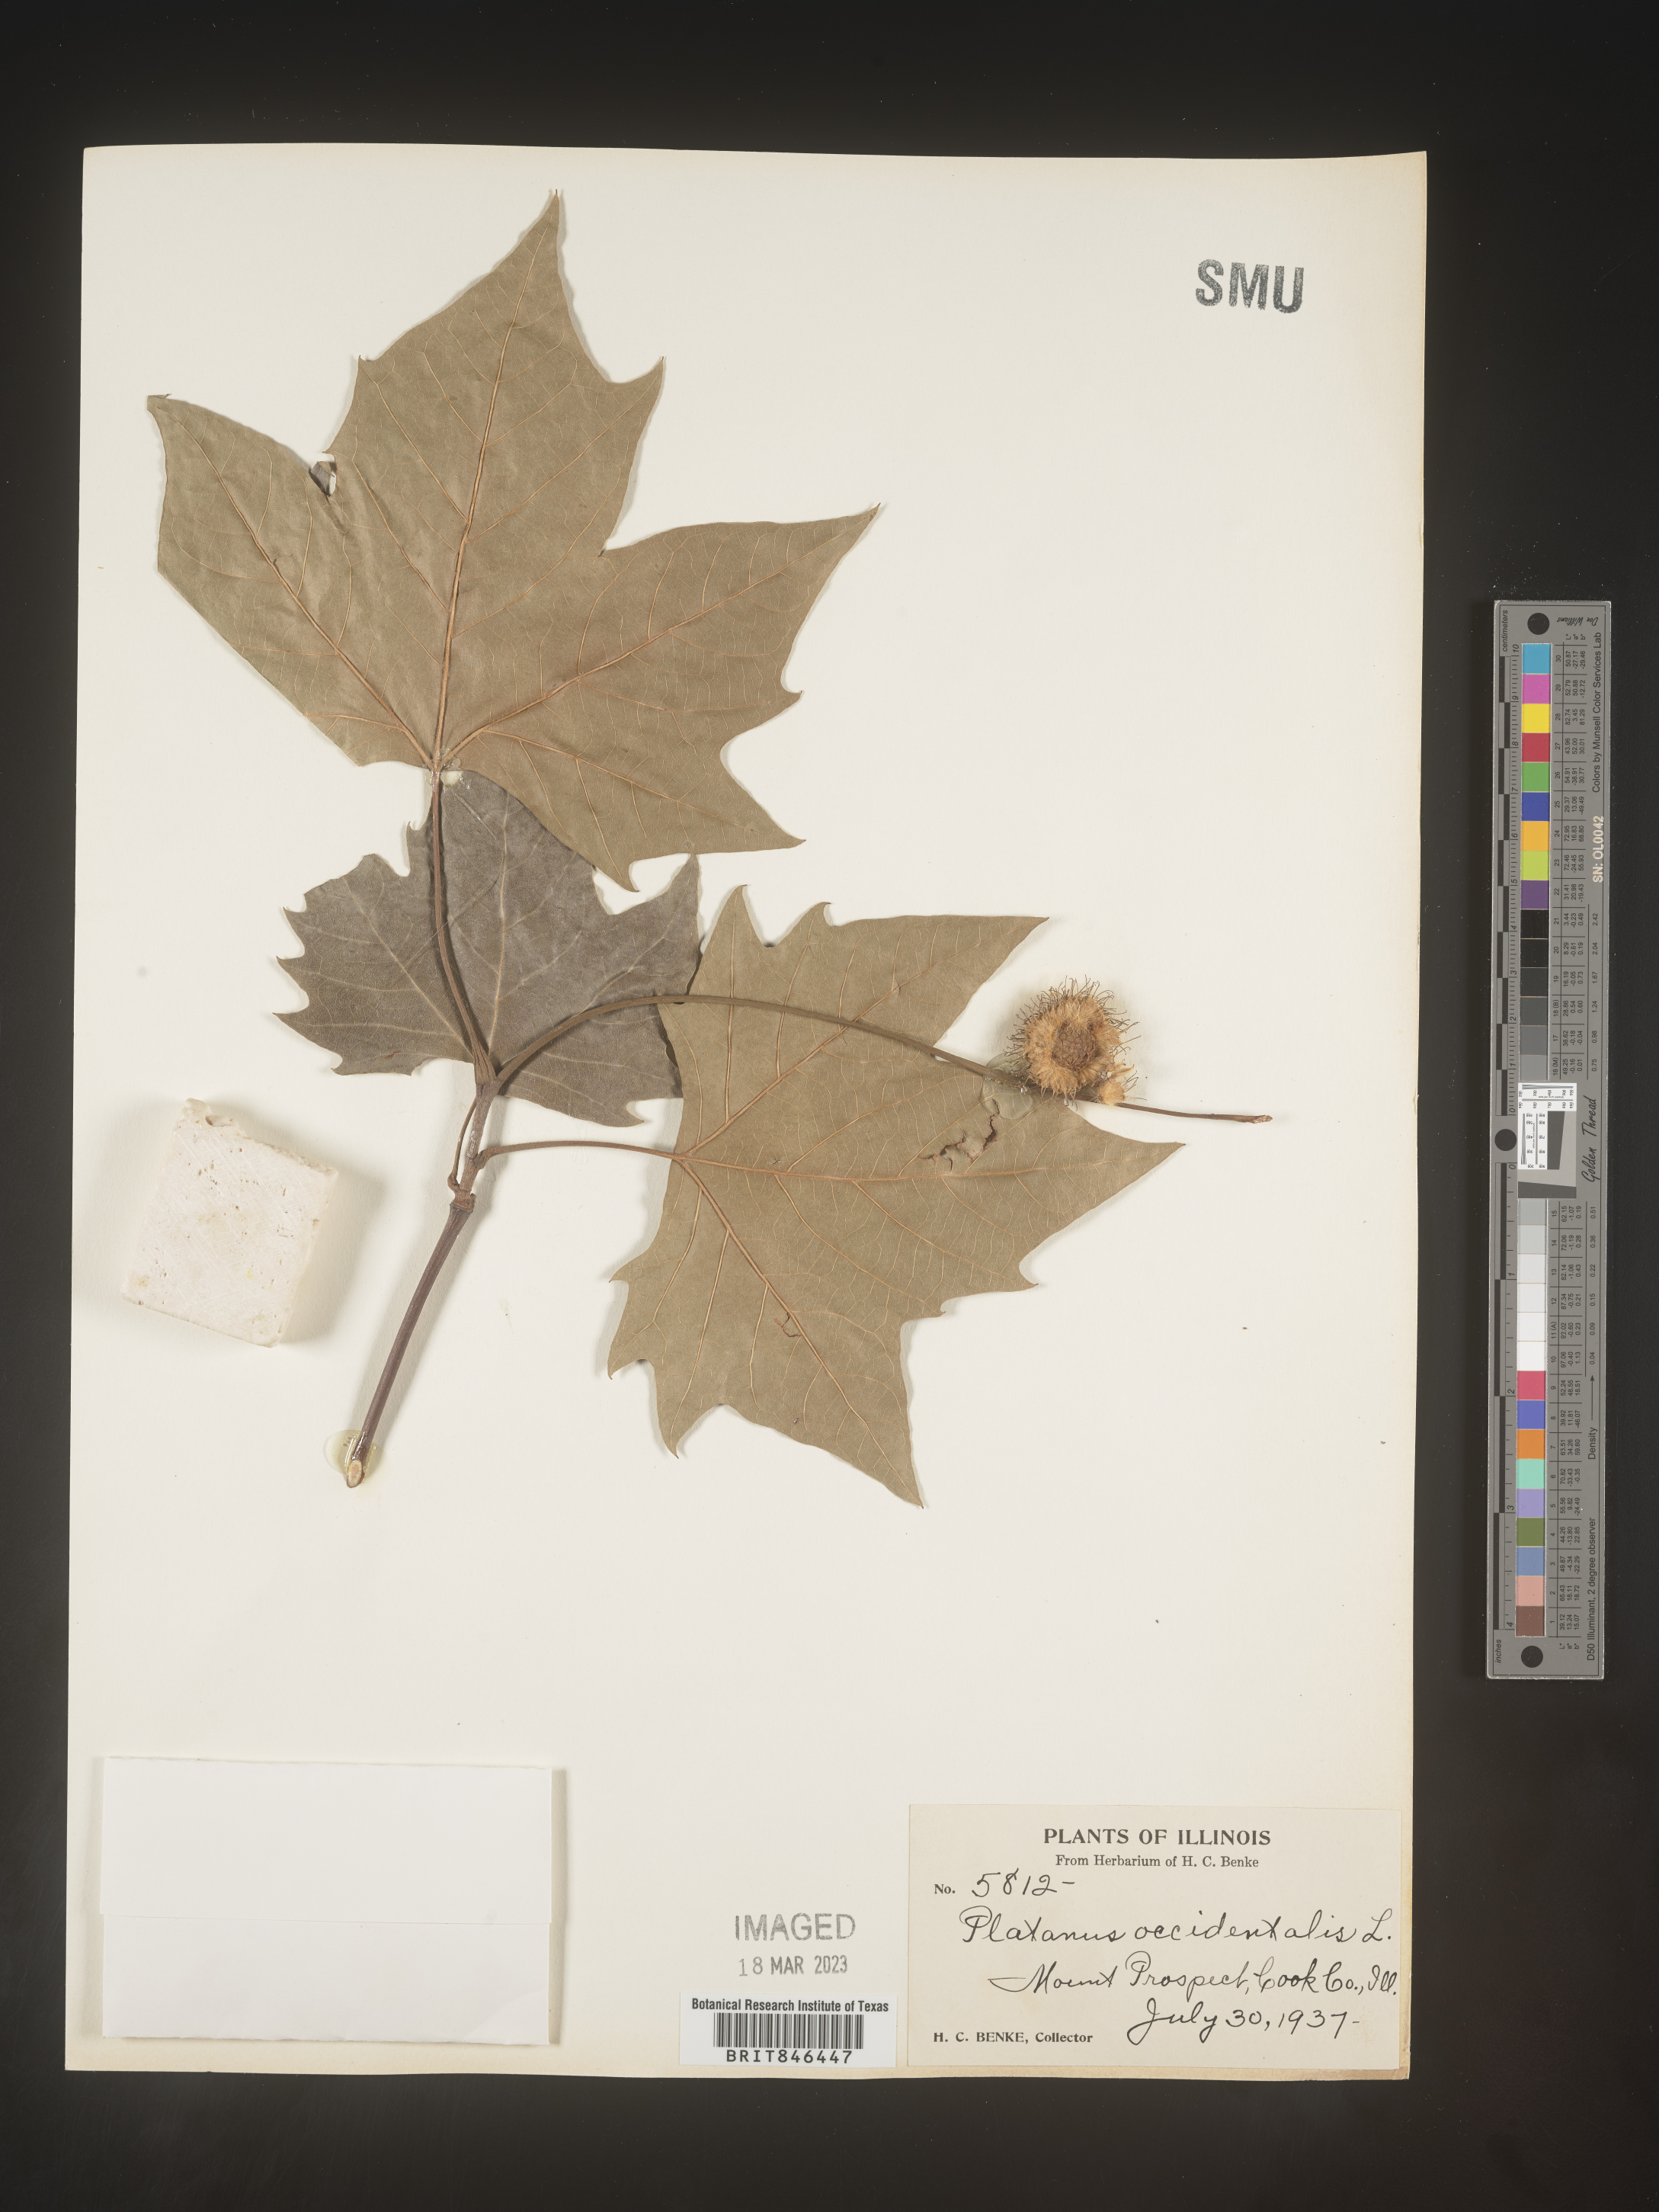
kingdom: Plantae
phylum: Tracheophyta
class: Magnoliopsida
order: Proteales
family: Platanaceae
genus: Platanus
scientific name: Platanus occidentalis
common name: American sycamore
